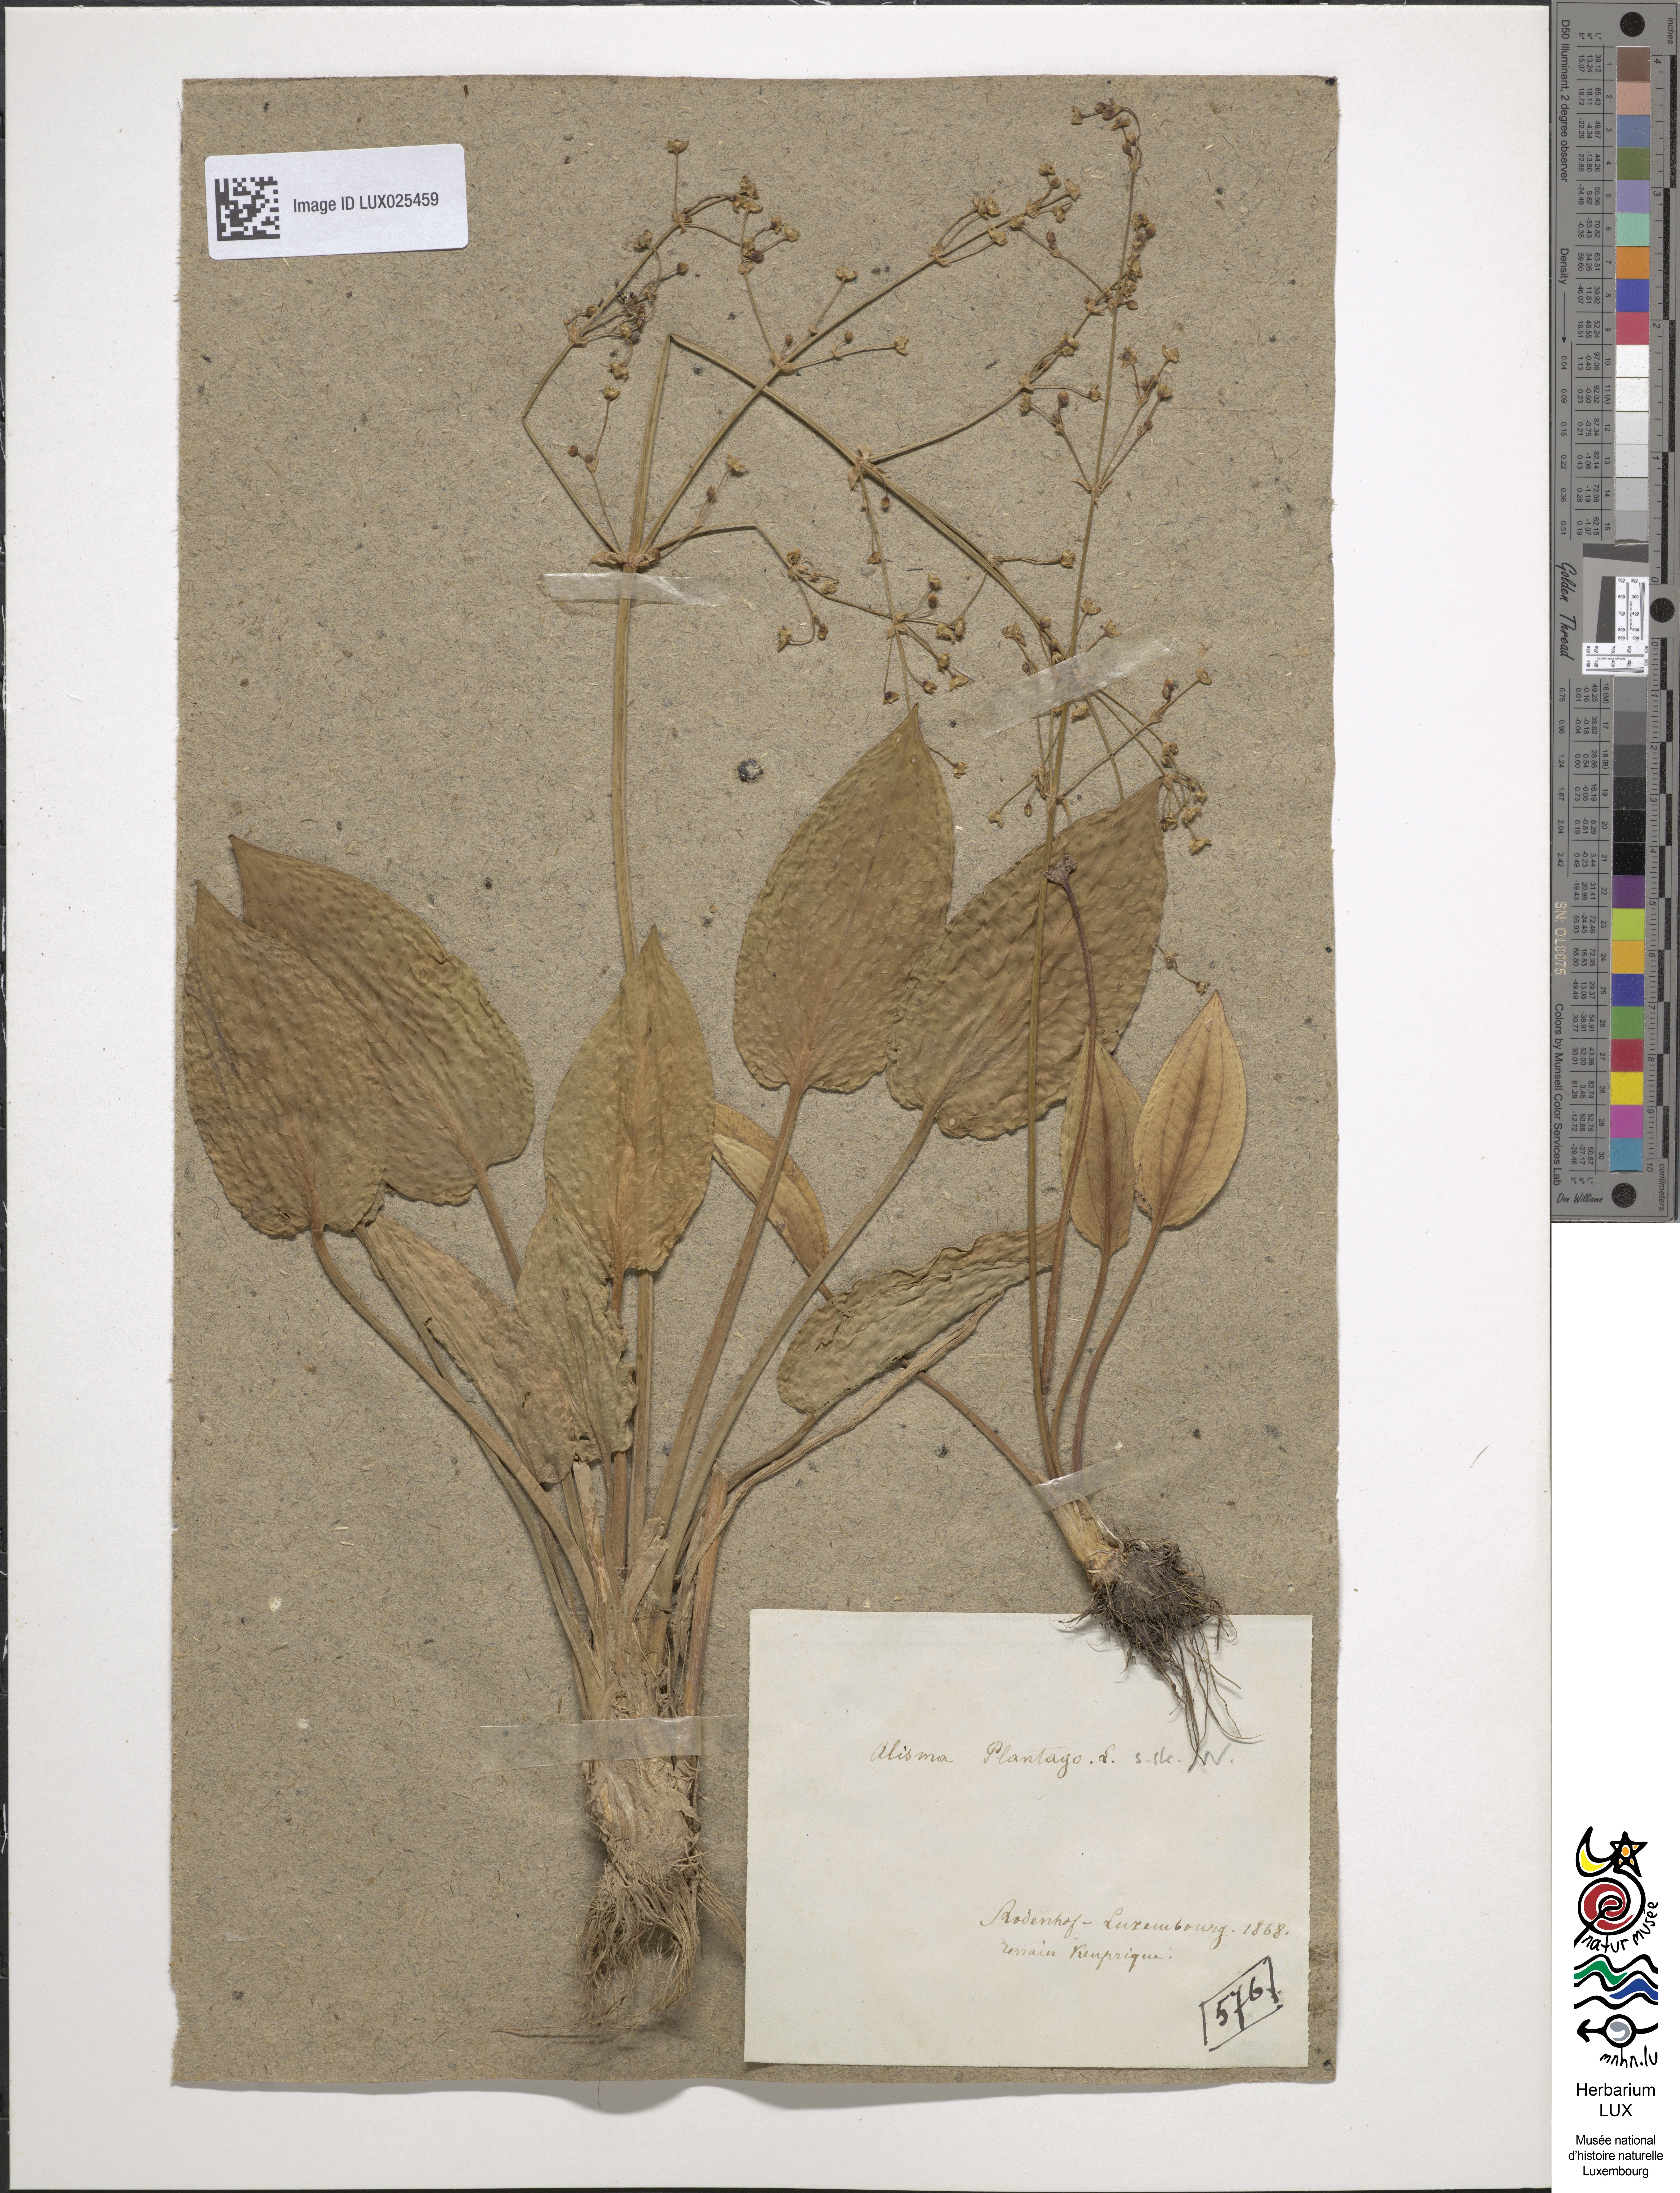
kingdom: Plantae
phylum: Tracheophyta
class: Liliopsida
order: Alismatales
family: Alismataceae
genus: Alisma
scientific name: Alisma plantago-aquatica
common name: Water-plantain
